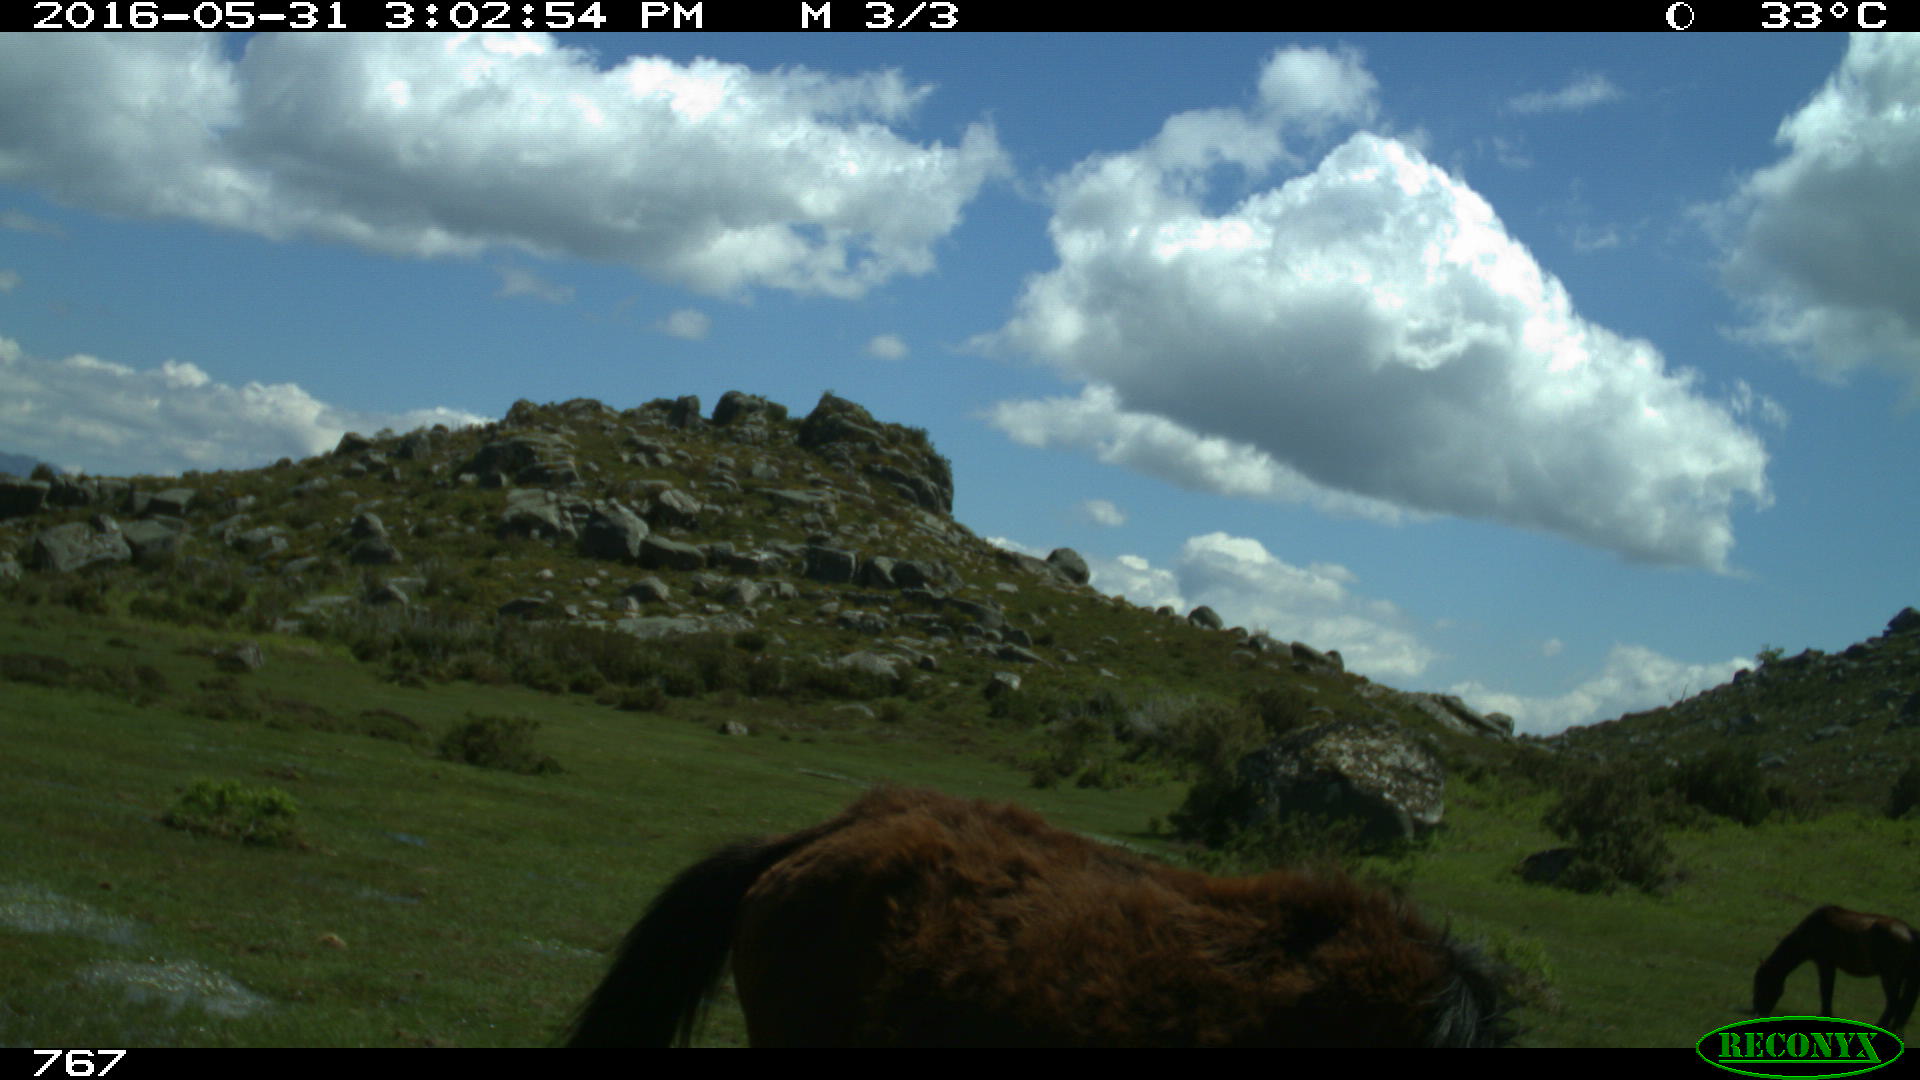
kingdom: Animalia
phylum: Chordata
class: Mammalia
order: Perissodactyla
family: Equidae
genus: Equus
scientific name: Equus caballus
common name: Horse
